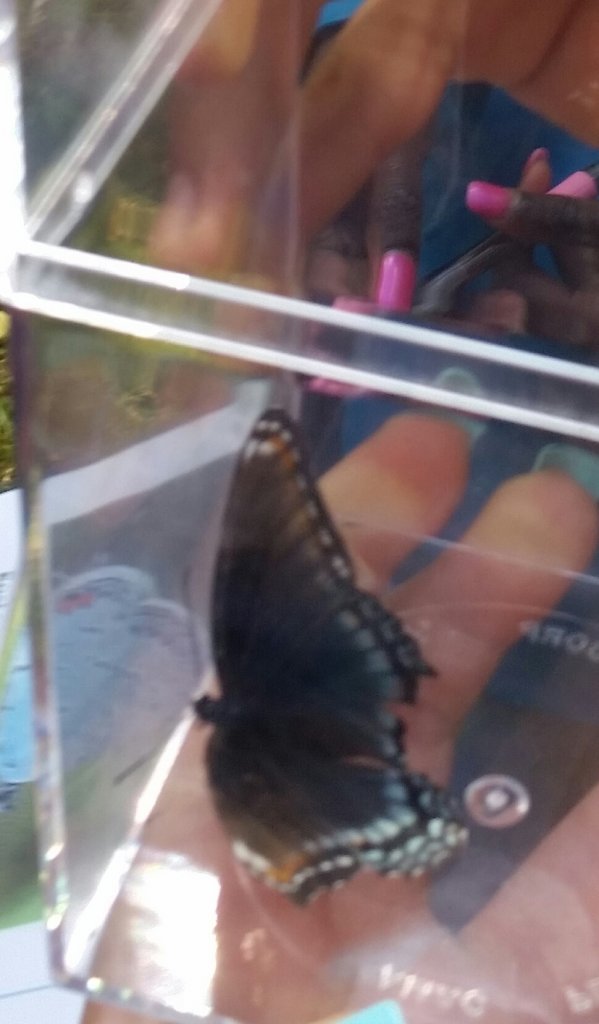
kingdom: Animalia
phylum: Arthropoda
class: Insecta
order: Lepidoptera
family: Nymphalidae
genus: Limenitis
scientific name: Limenitis astyanax
